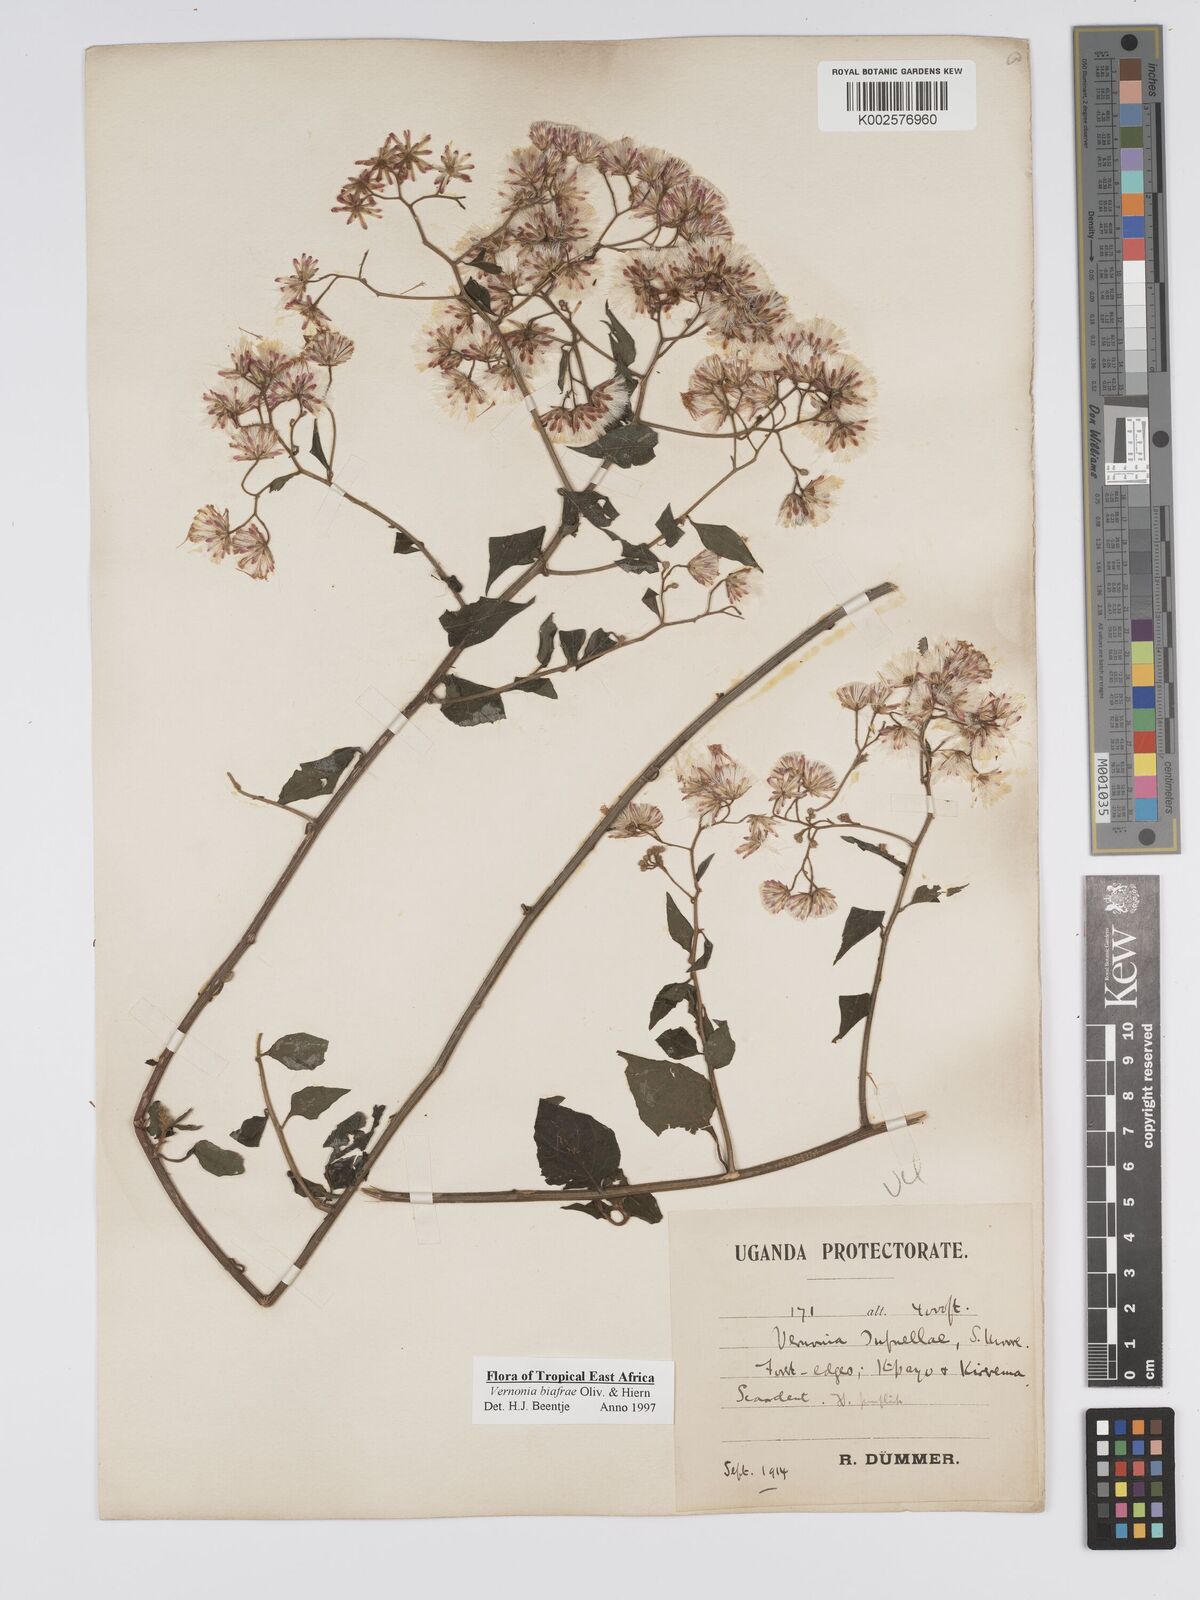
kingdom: Plantae
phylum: Tracheophyta
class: Magnoliopsida
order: Asterales
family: Asteraceae
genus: Distephanus
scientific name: Distephanus biafrae
